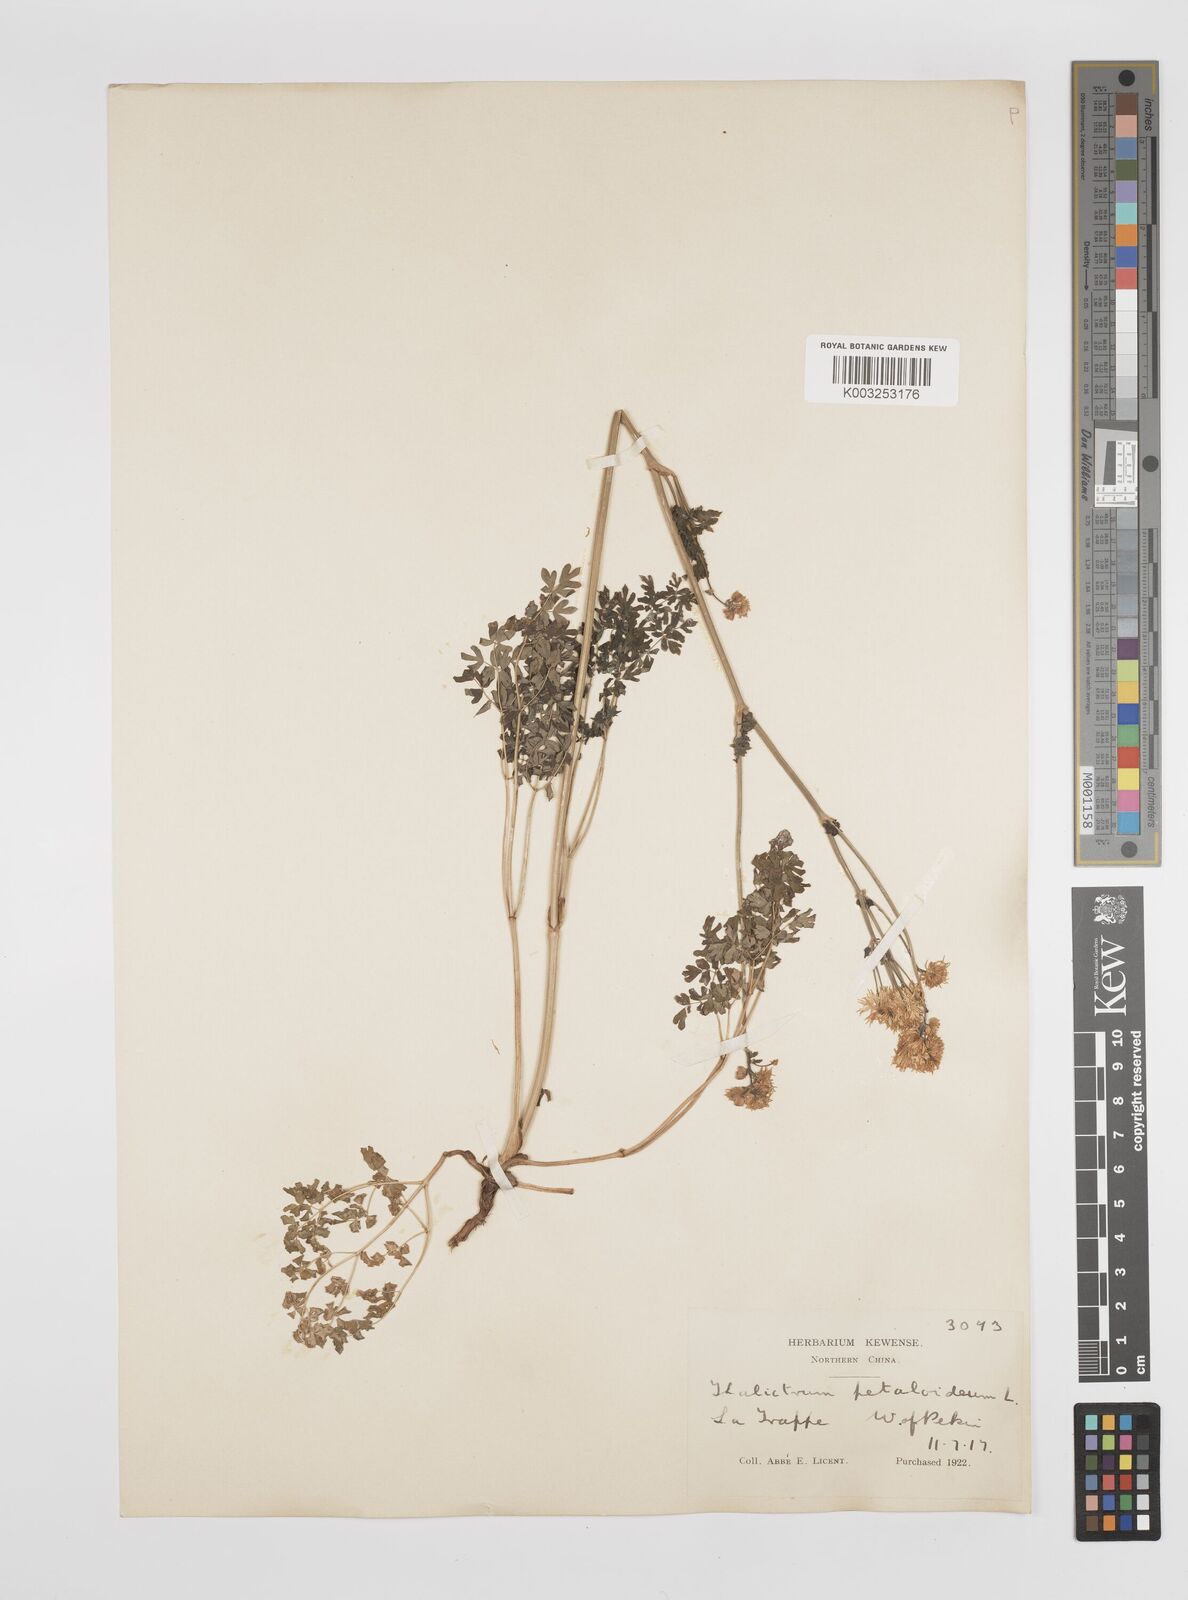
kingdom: Plantae
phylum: Tracheophyta
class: Magnoliopsida
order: Ranunculales
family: Ranunculaceae
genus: Thalictrum
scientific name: Thalictrum petaloideum
